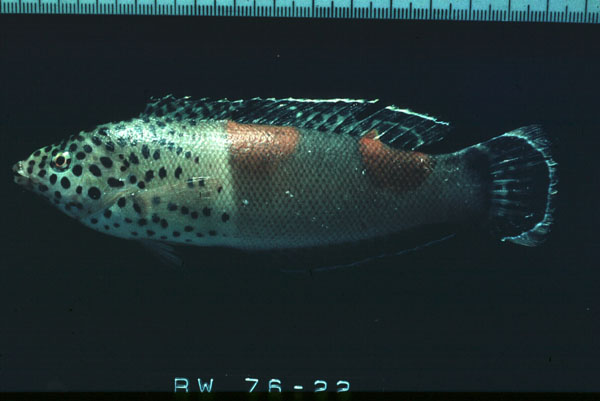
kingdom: Animalia
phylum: Chordata
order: Perciformes
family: Labridae
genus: Coris
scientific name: Coris aygula
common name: Clown coris
